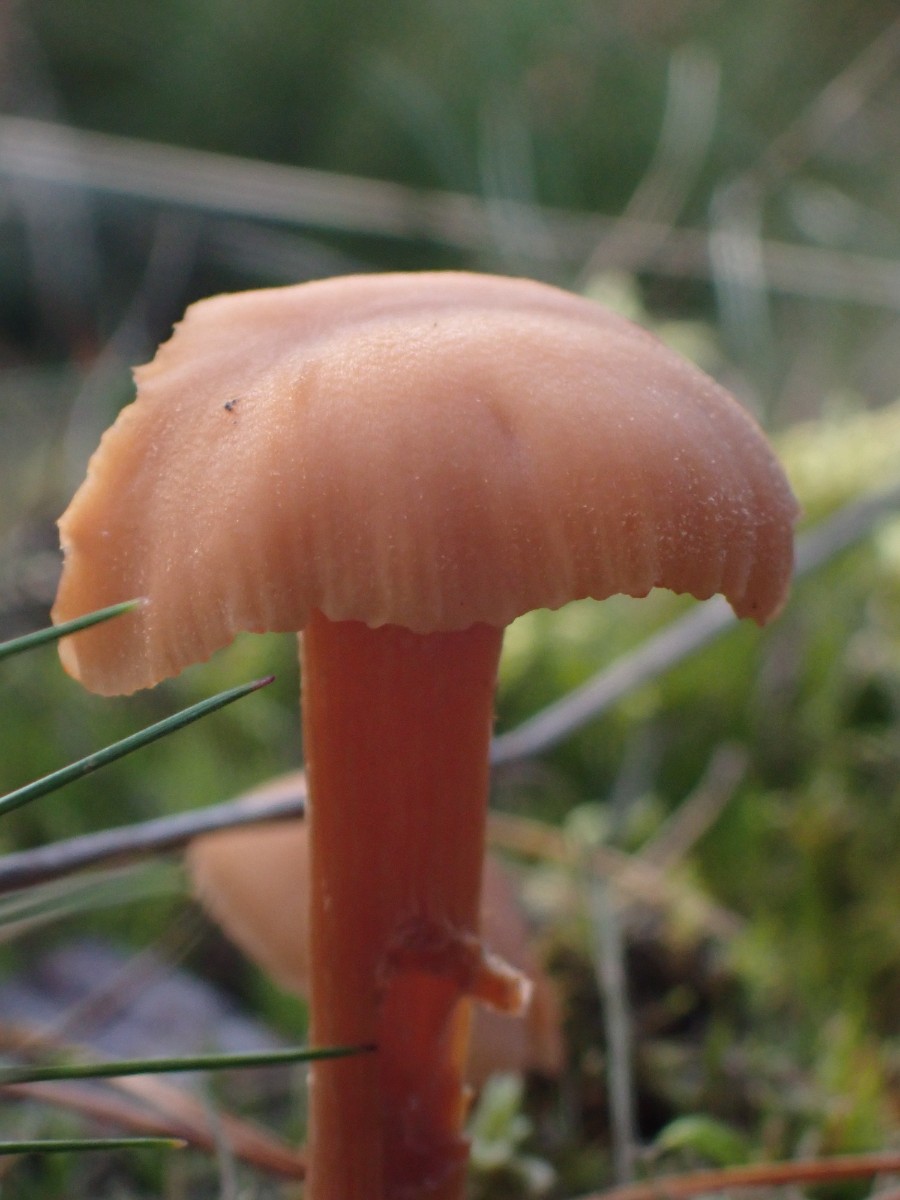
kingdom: Fungi
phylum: Basidiomycota
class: Agaricomycetes
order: Agaricales
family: Hydnangiaceae
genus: Laccaria
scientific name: Laccaria proxima
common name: stor ametysthat
